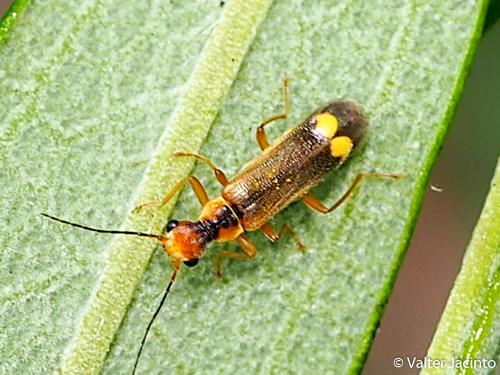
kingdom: Animalia
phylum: Arthropoda
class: Insecta
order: Coleoptera
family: Cantharidae
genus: Malthinus
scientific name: Malthinus seriepunctatus
